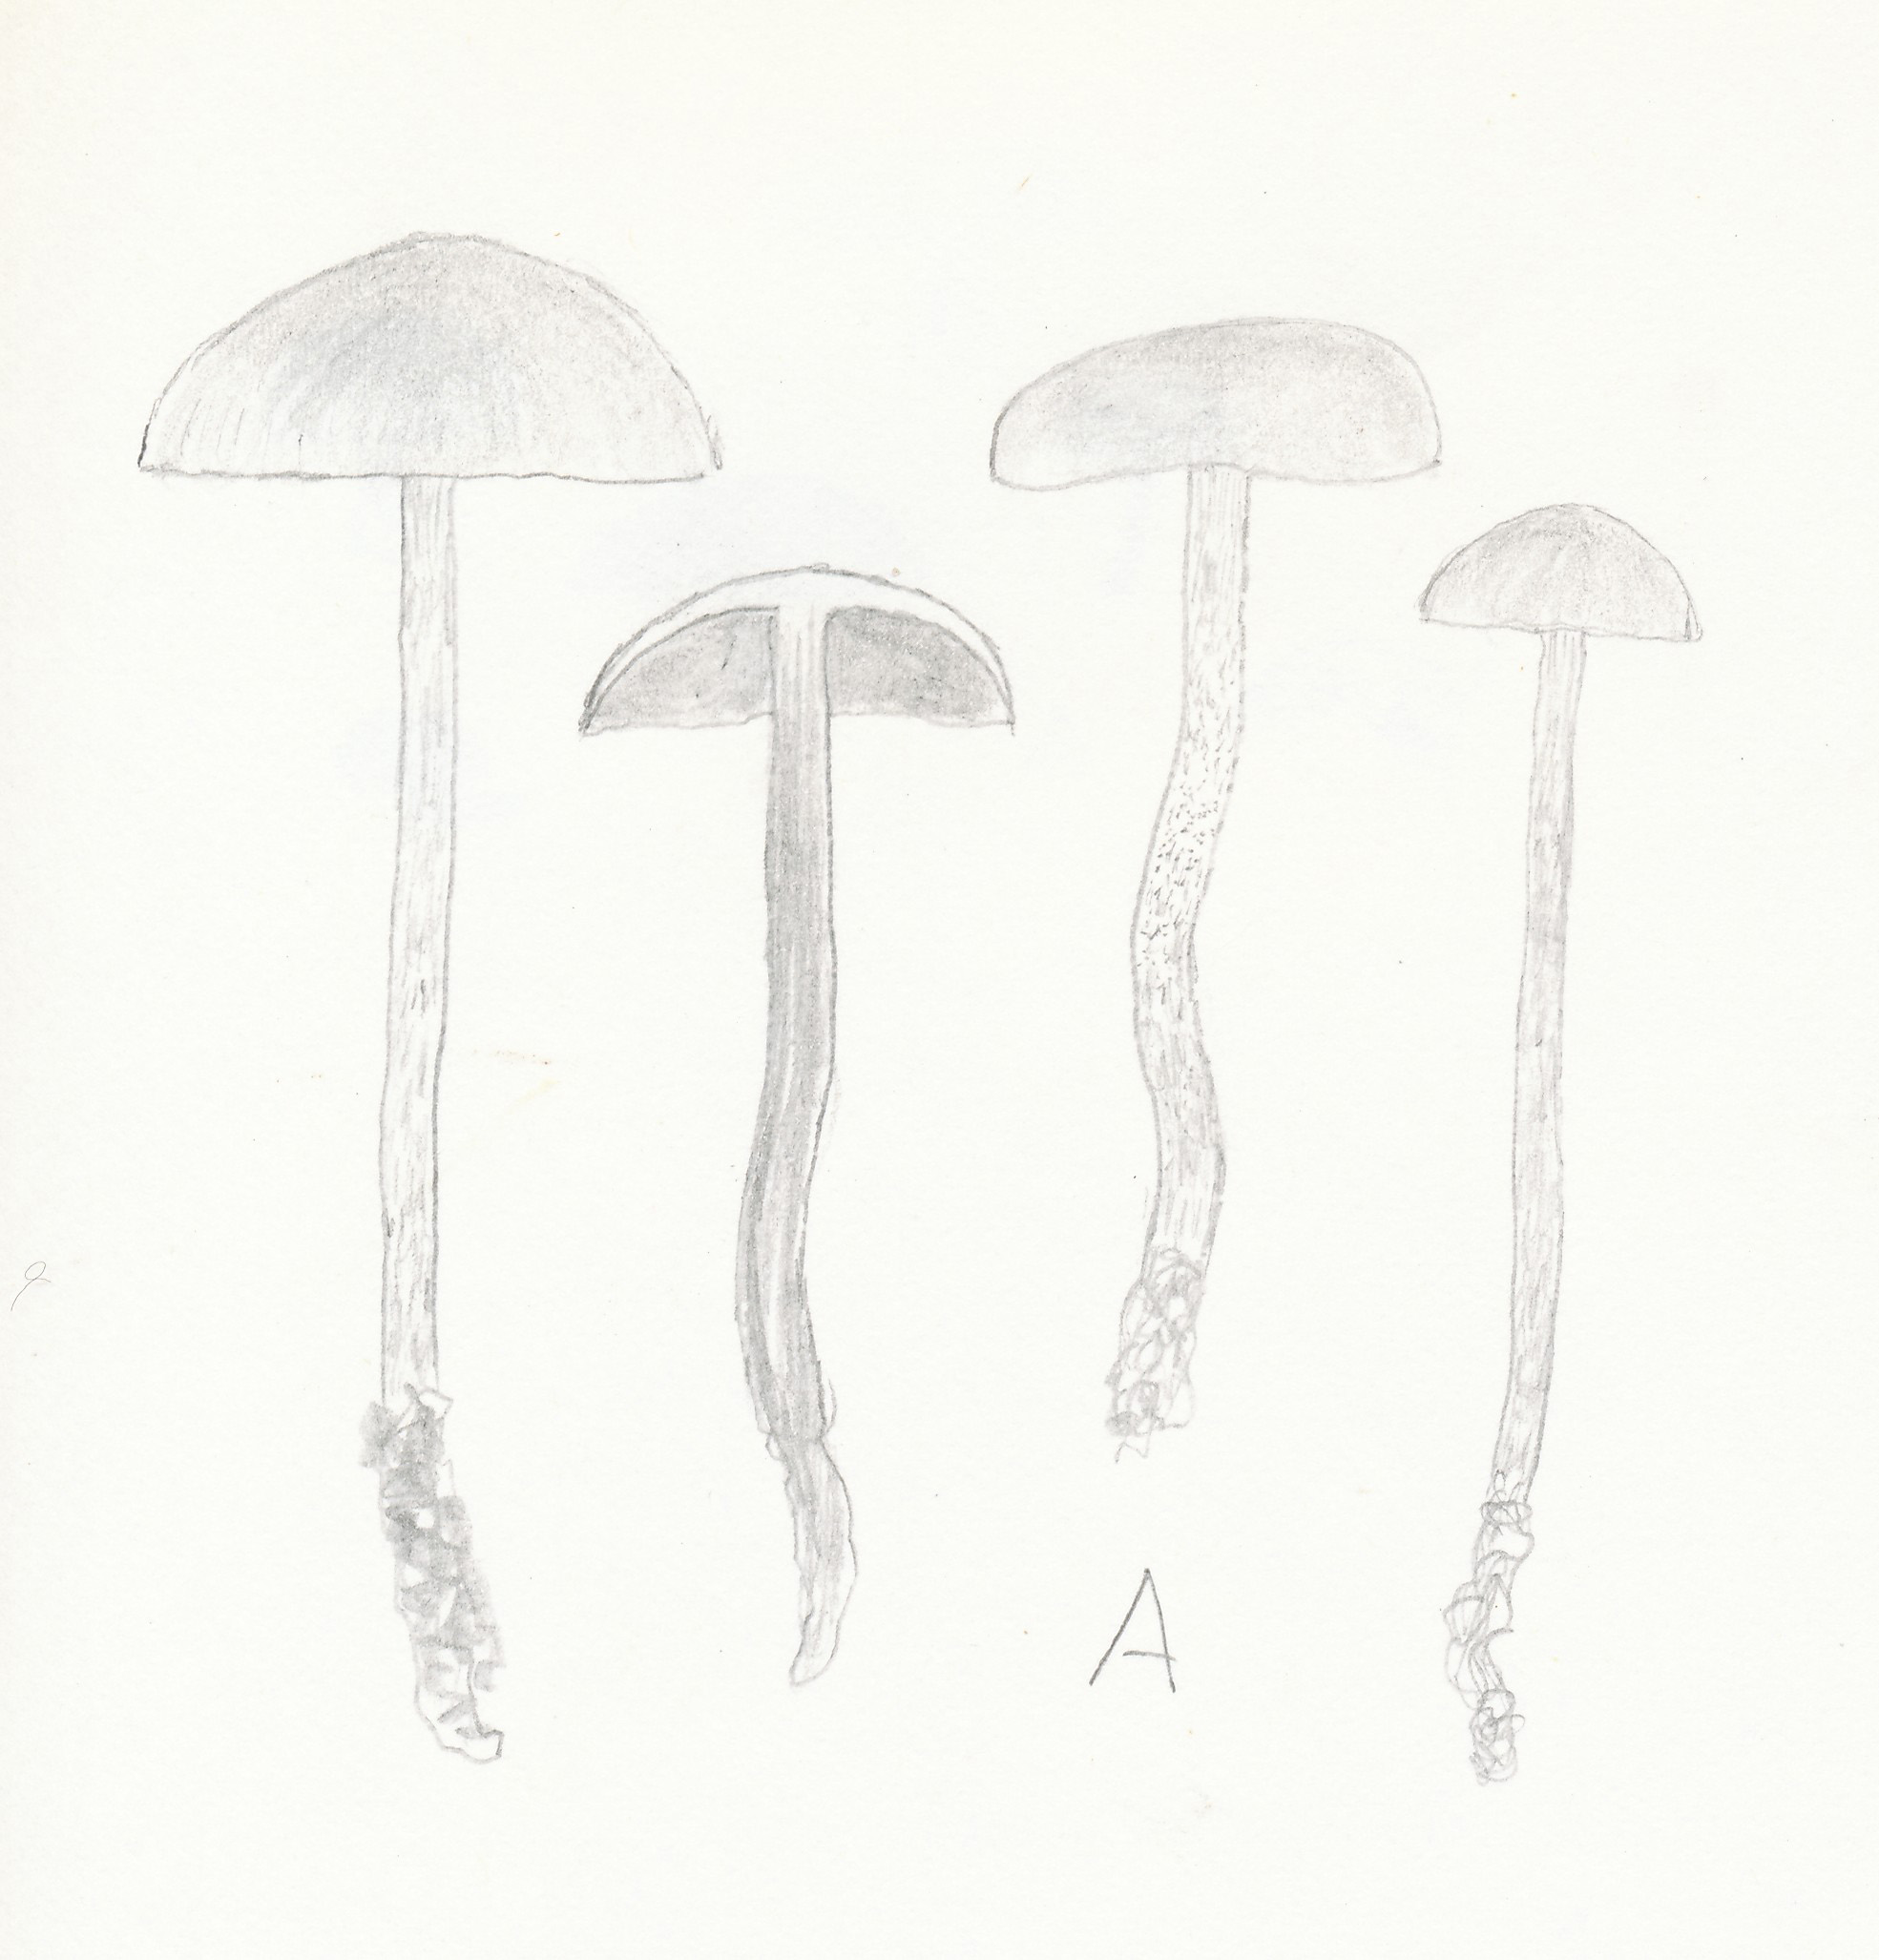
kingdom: Fungi
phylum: Basidiomycota
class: Agaricomycetes
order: Agaricales
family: Strophariaceae
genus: Deconica
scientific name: Deconica merdaria
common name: møg-stråhat
